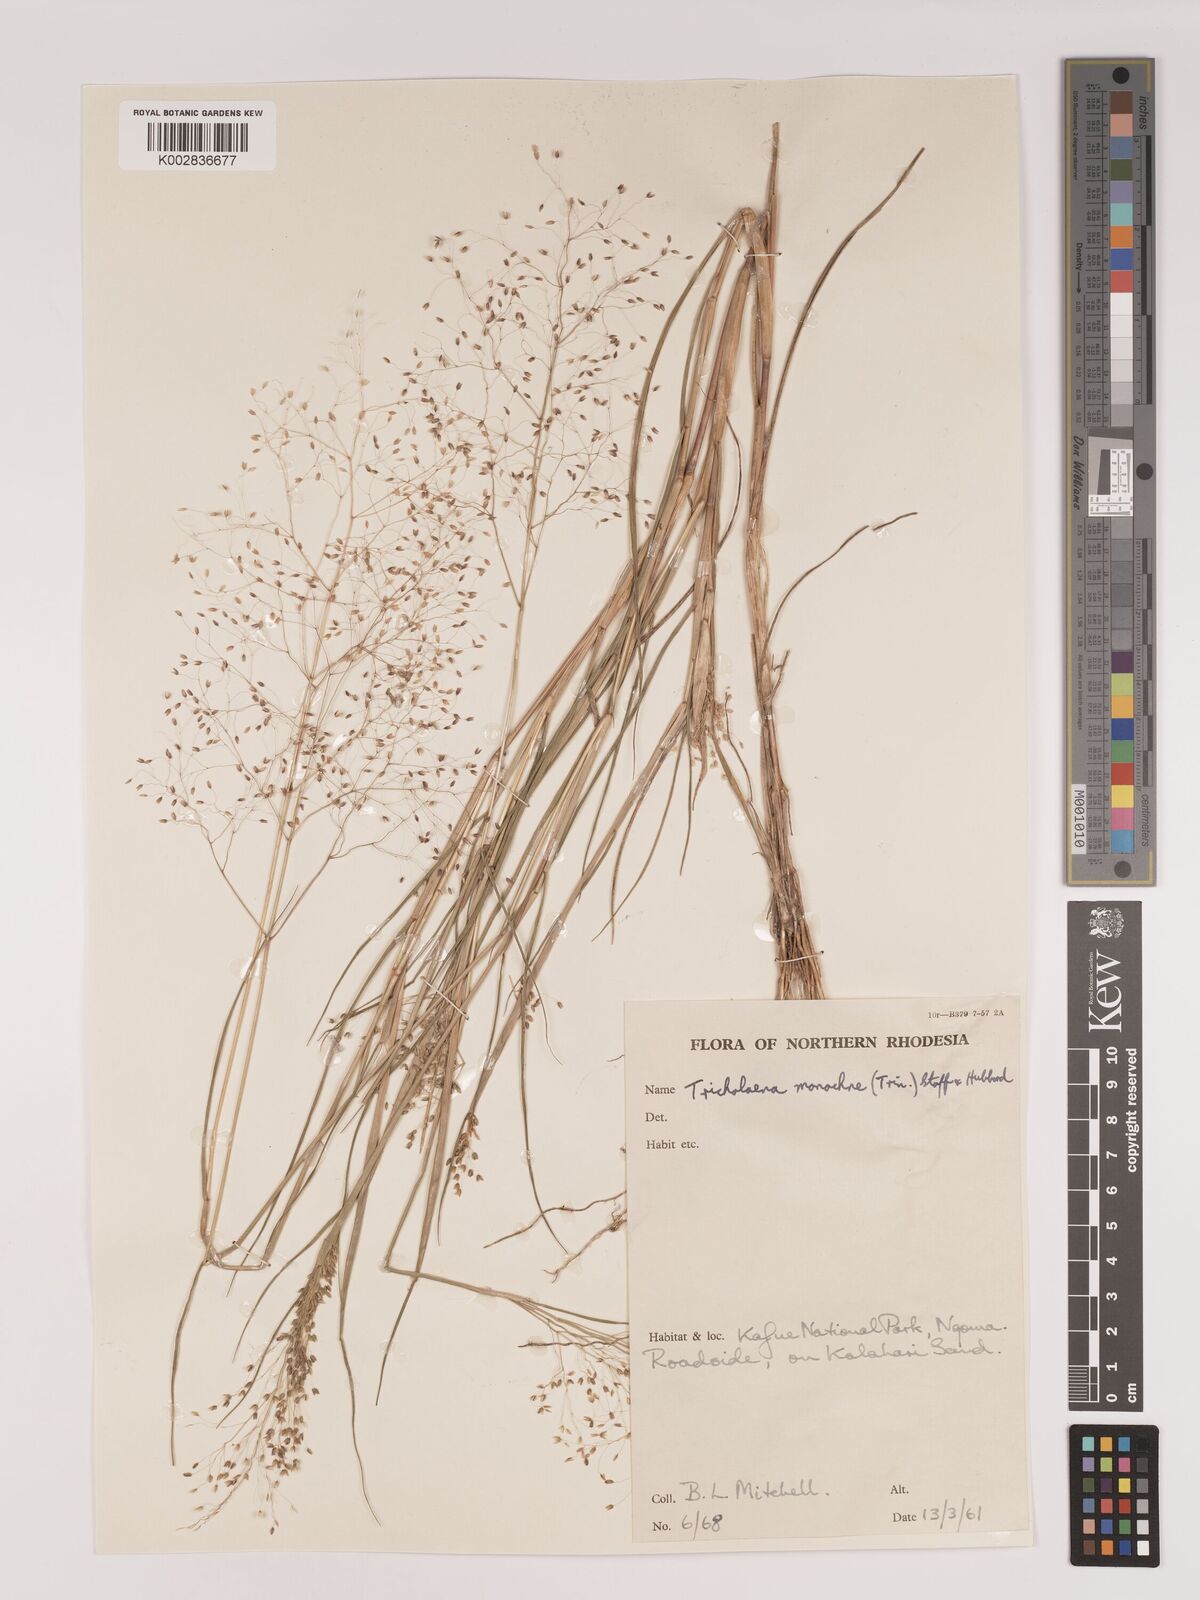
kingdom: Plantae
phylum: Tracheophyta
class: Liliopsida
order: Poales
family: Poaceae
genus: Tricholaena
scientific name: Tricholaena monachne
